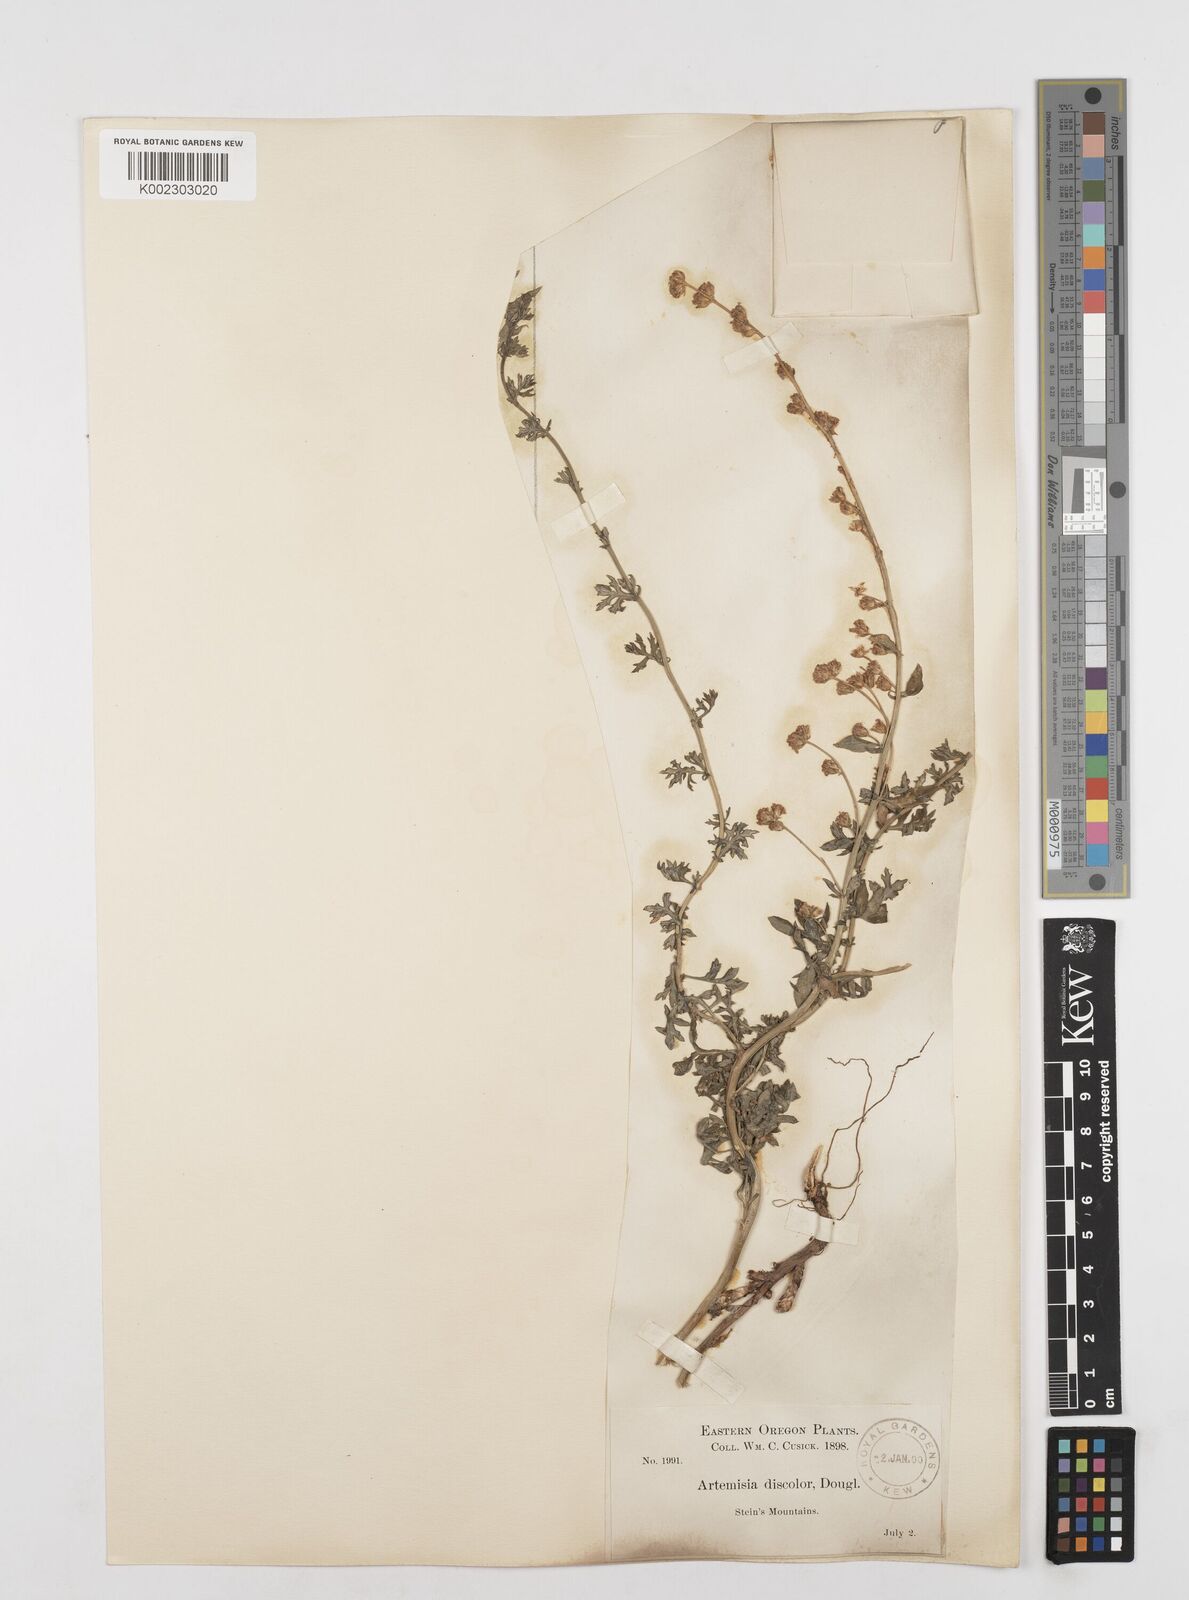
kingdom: Plantae
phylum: Tracheophyta
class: Magnoliopsida
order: Asterales
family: Asteraceae
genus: Artemisia
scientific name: Artemisia michauxiana
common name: Lemon sagewort
